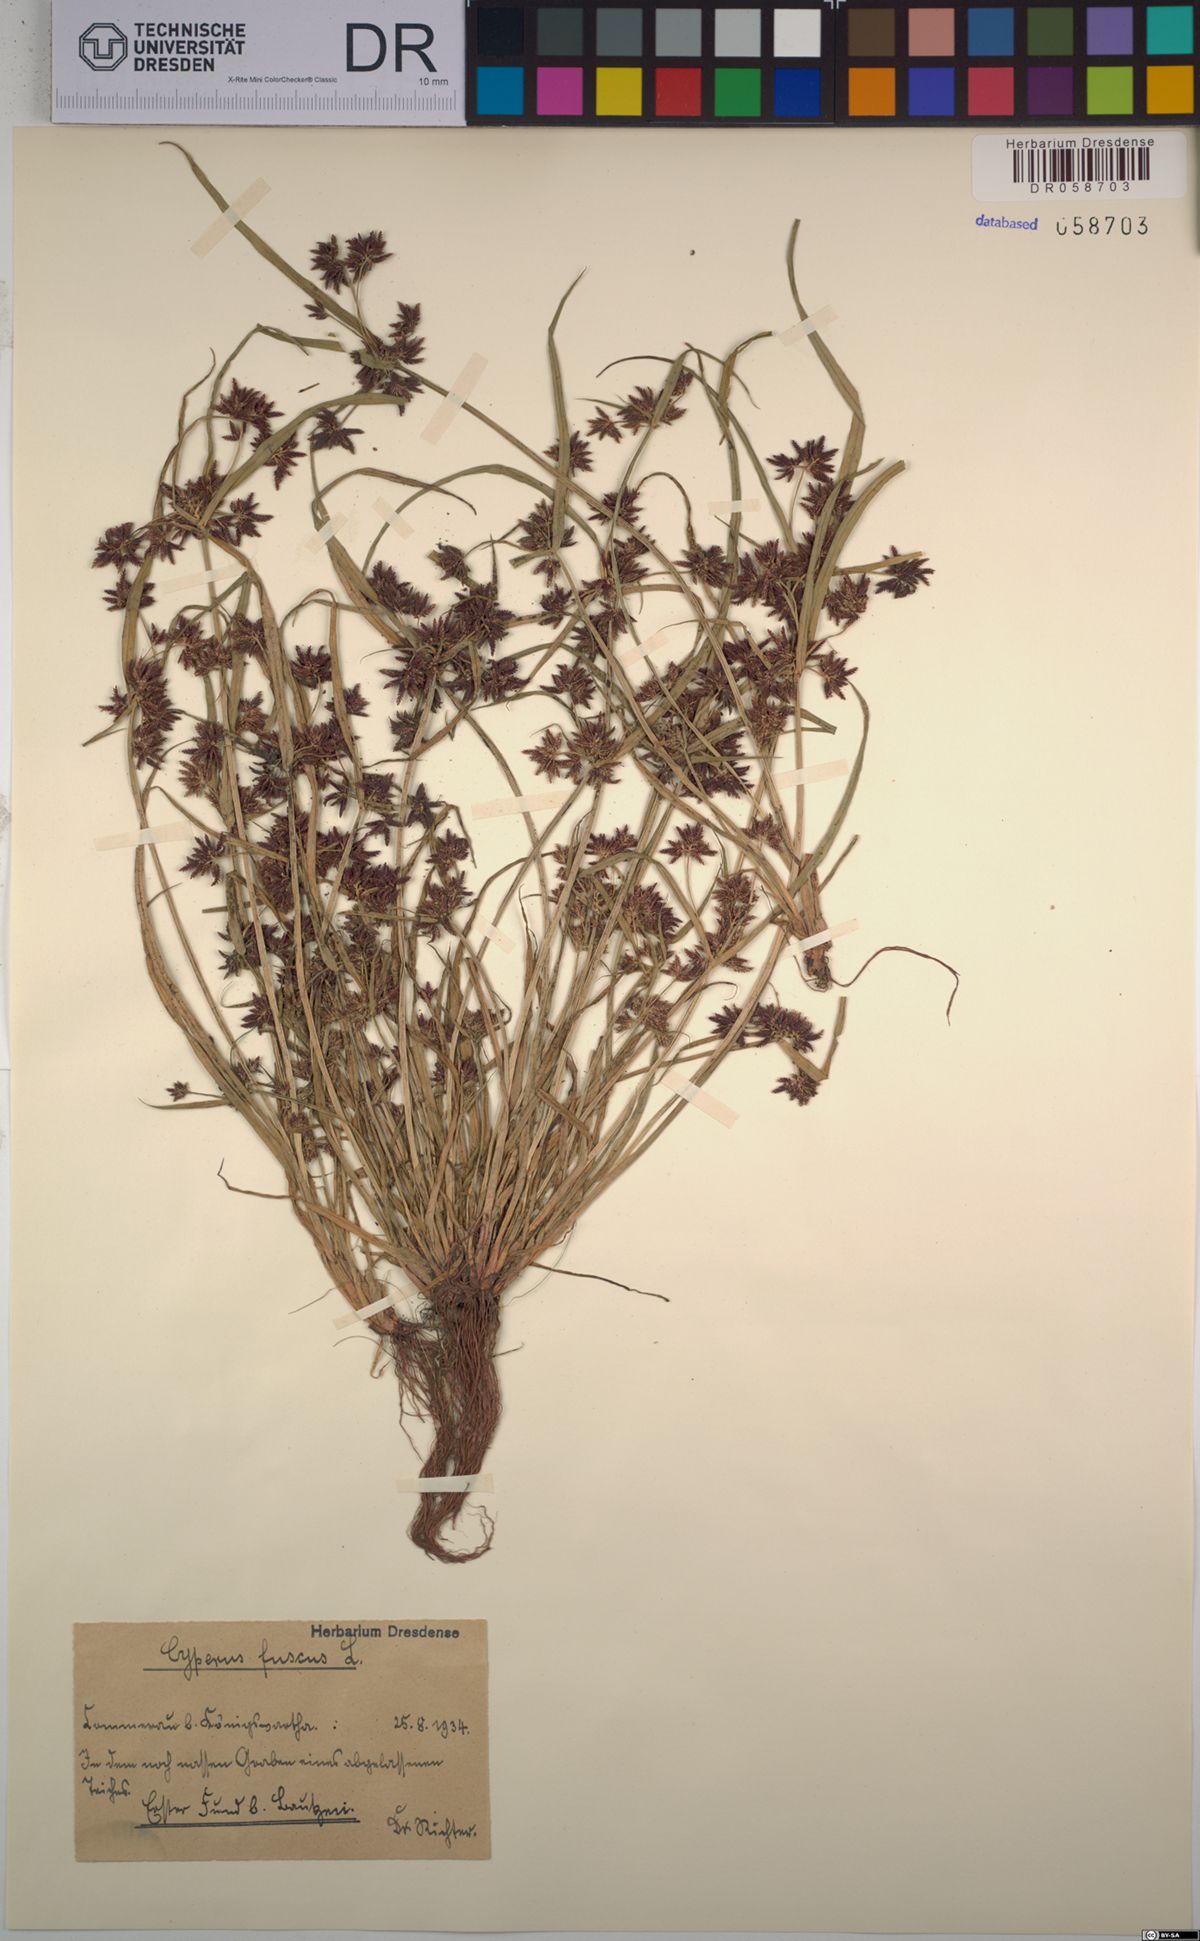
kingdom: Plantae
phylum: Tracheophyta
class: Liliopsida
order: Poales
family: Cyperaceae
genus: Cyperus
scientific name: Cyperus fuscus
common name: Brown galingale
